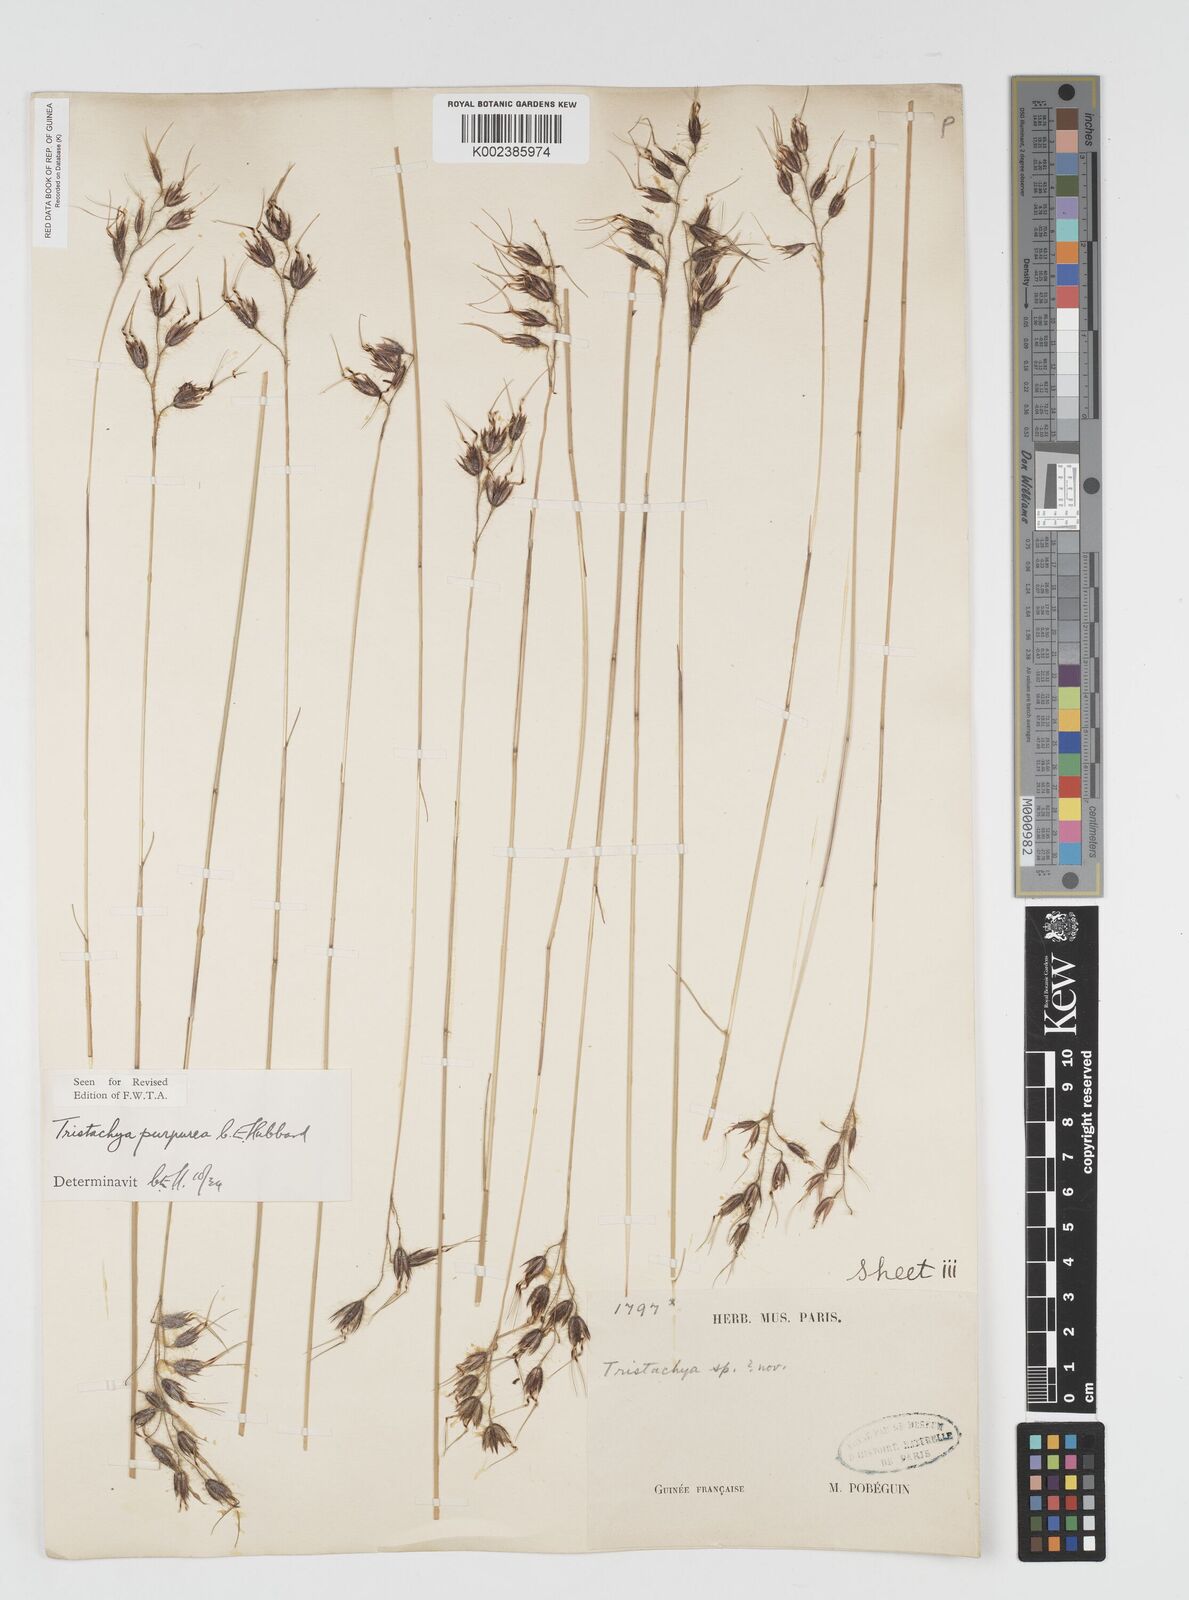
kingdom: Plantae
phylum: Tracheophyta
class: Liliopsida
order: Poales
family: Poaceae
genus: Dilophotriche
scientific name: Dilophotriche tristachyoides
